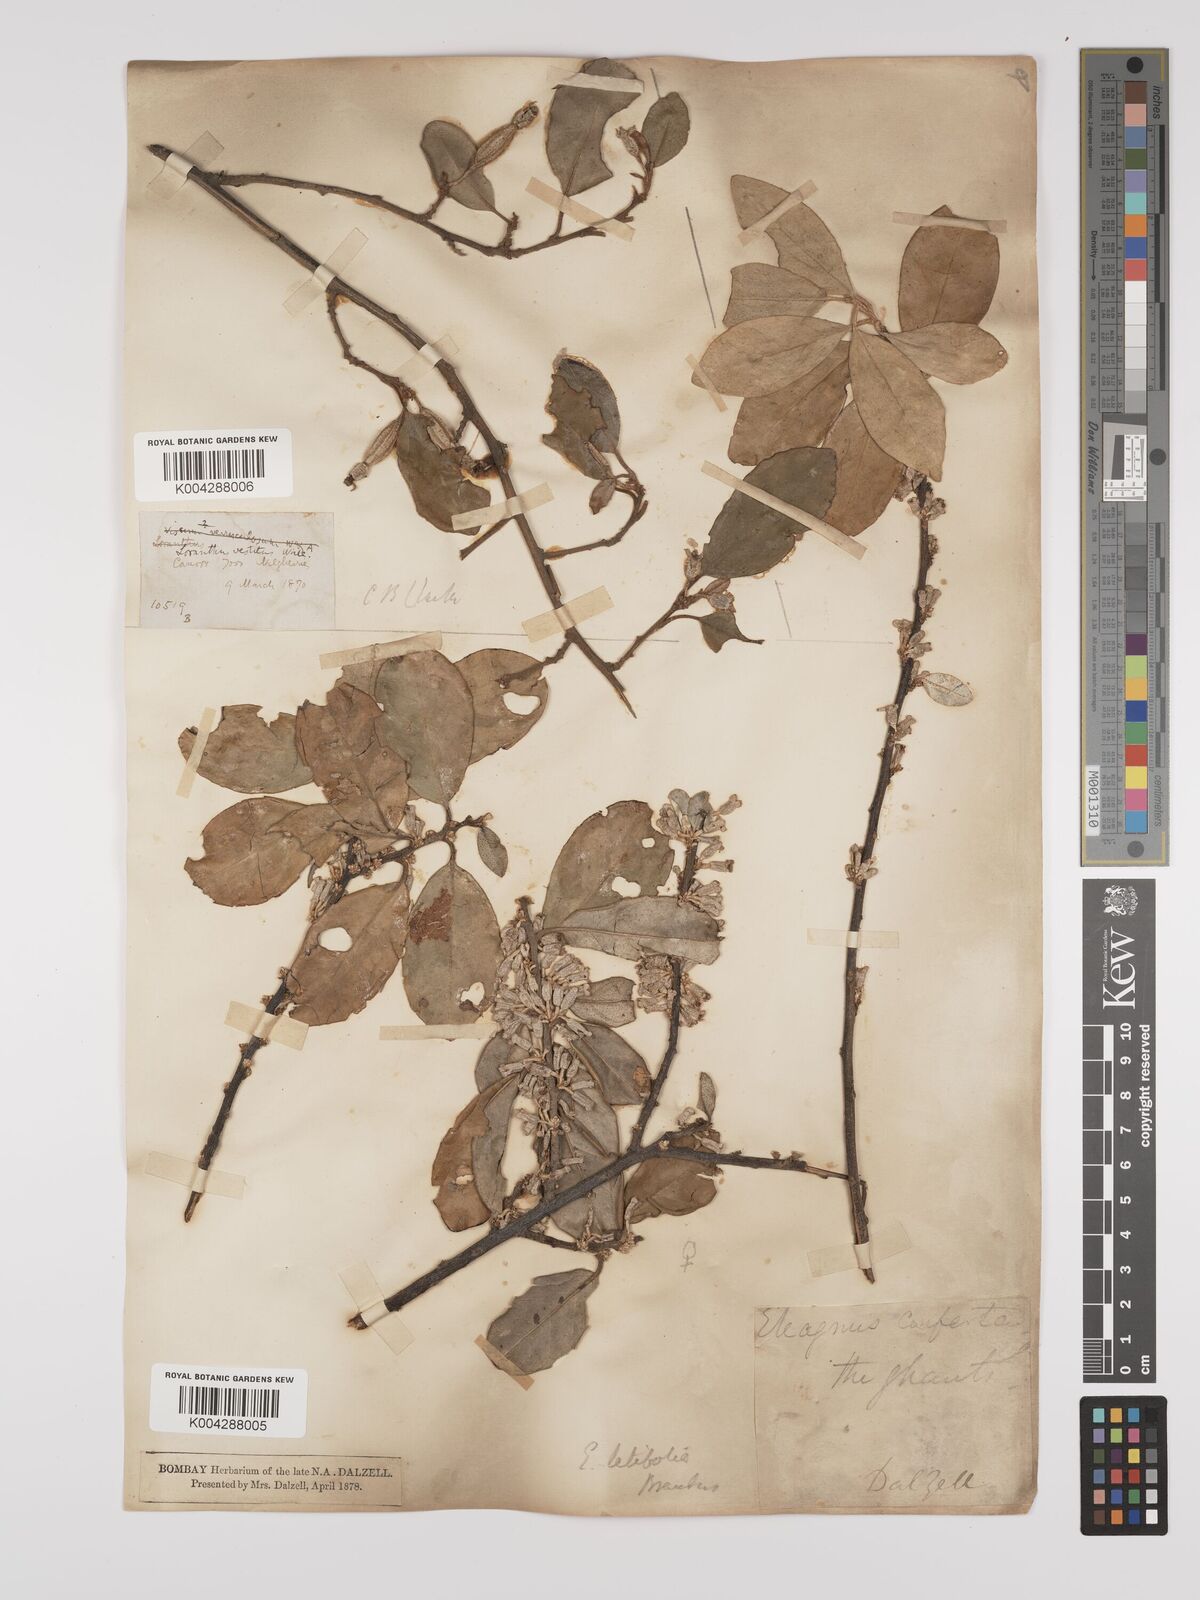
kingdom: Plantae
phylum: Tracheophyta
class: Magnoliopsida
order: Rosales
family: Elaeagnaceae
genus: Elaeagnus
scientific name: Elaeagnus latifolia
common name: Oleaster
